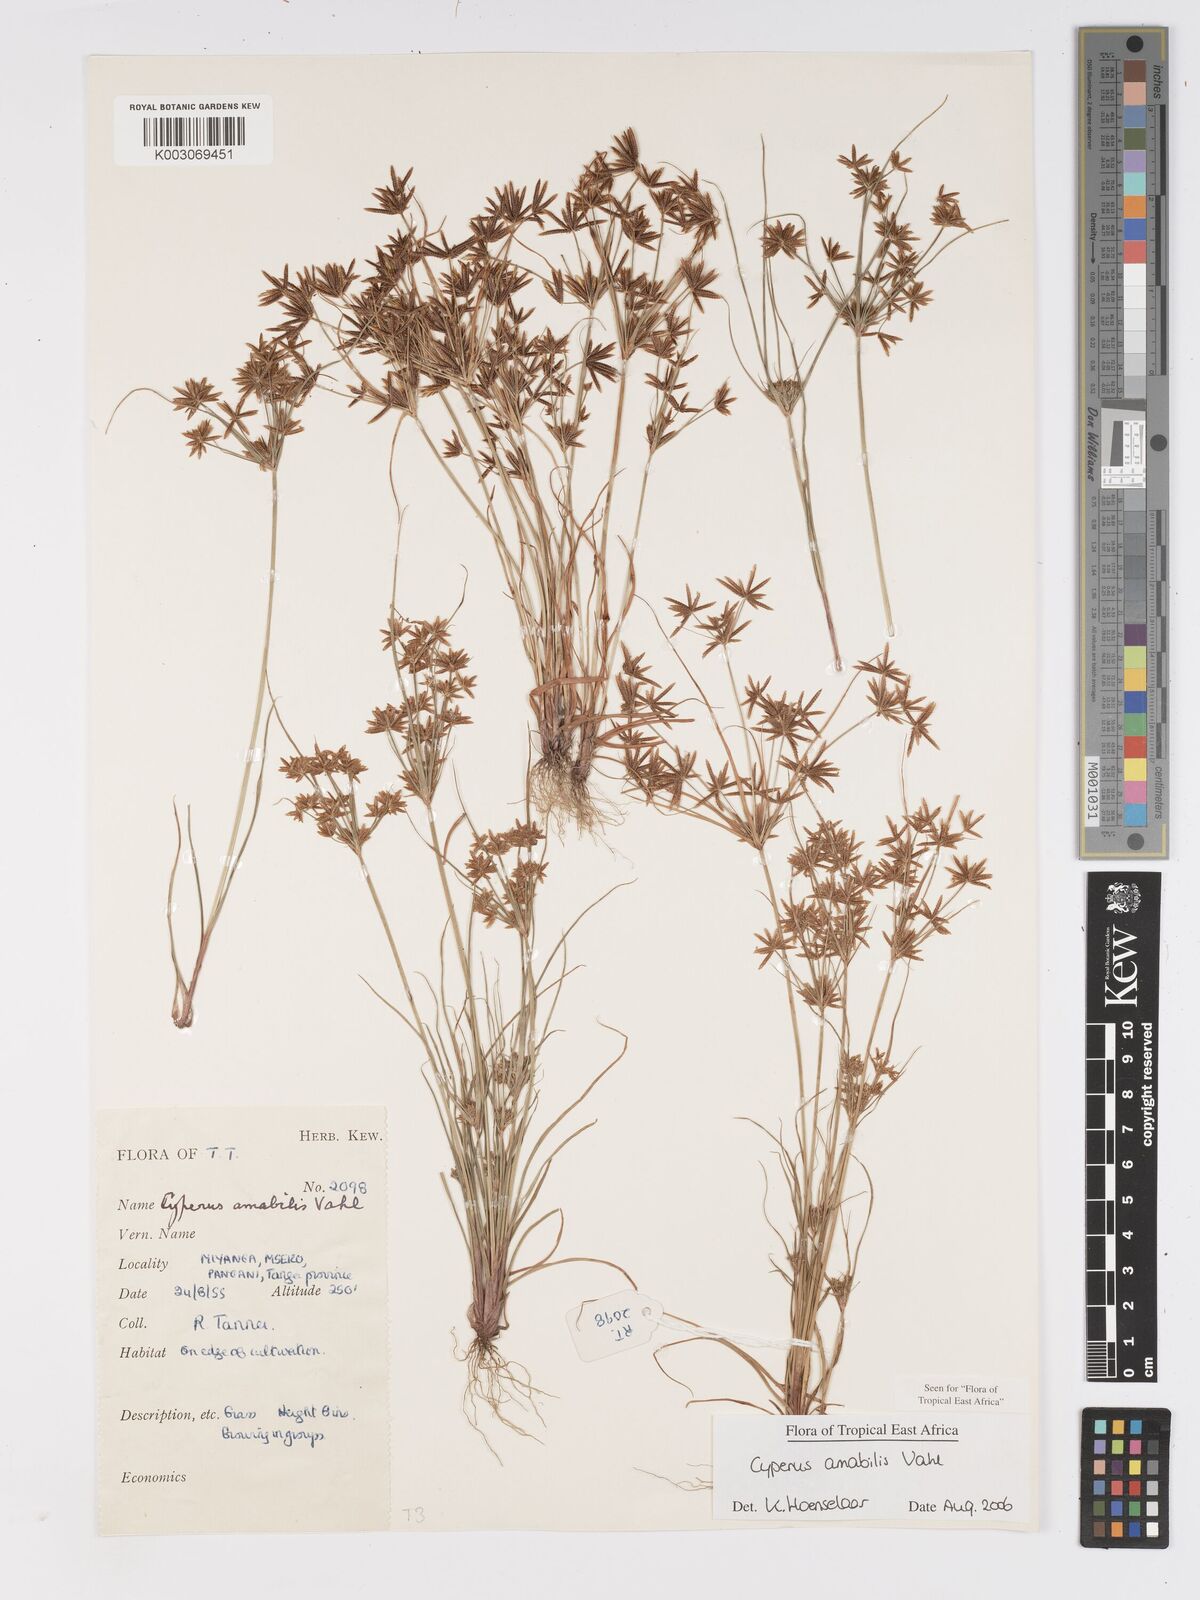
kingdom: Plantae
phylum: Tracheophyta
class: Liliopsida
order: Poales
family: Cyperaceae
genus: Cyperus
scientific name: Cyperus amabilis
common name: Foothill flat sedge
